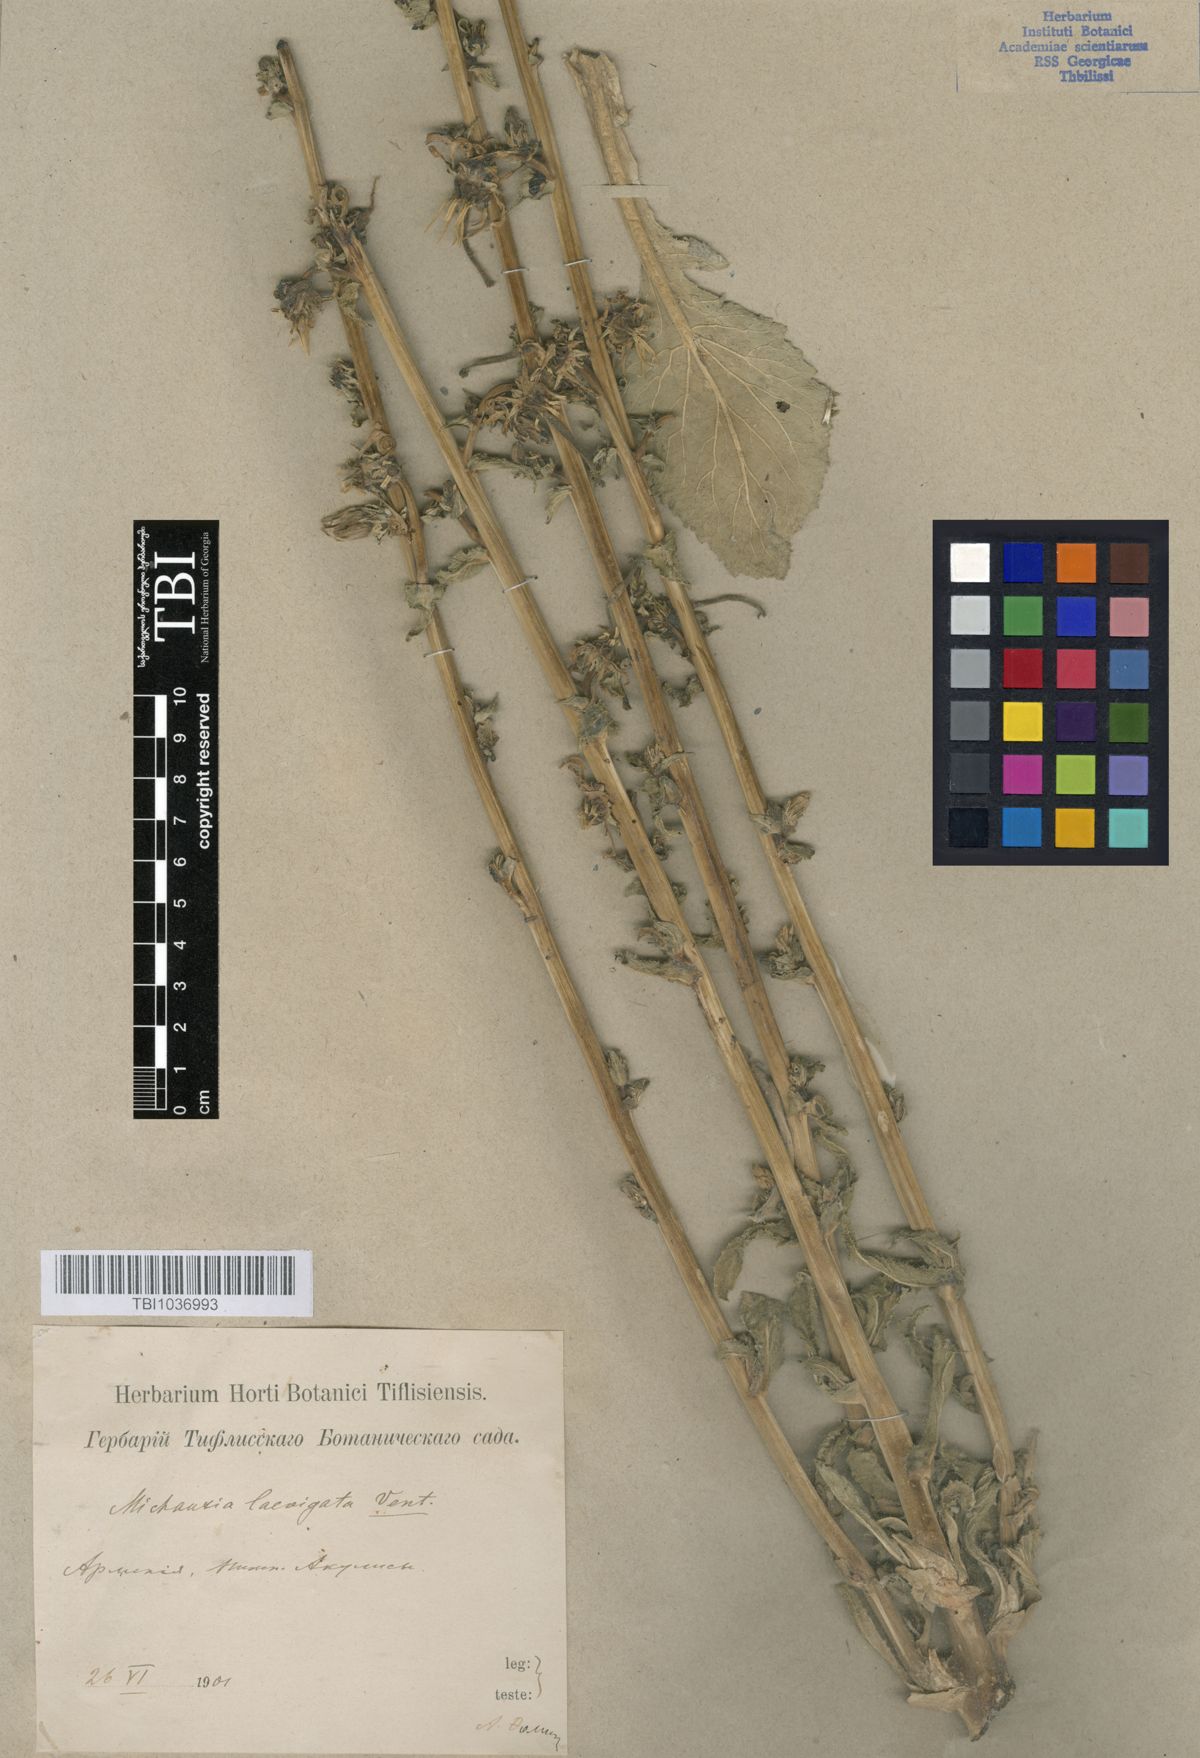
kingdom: Plantae
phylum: Tracheophyta
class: Magnoliopsida
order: Asterales
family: Campanulaceae
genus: Michauxia
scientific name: Michauxia laevigata
